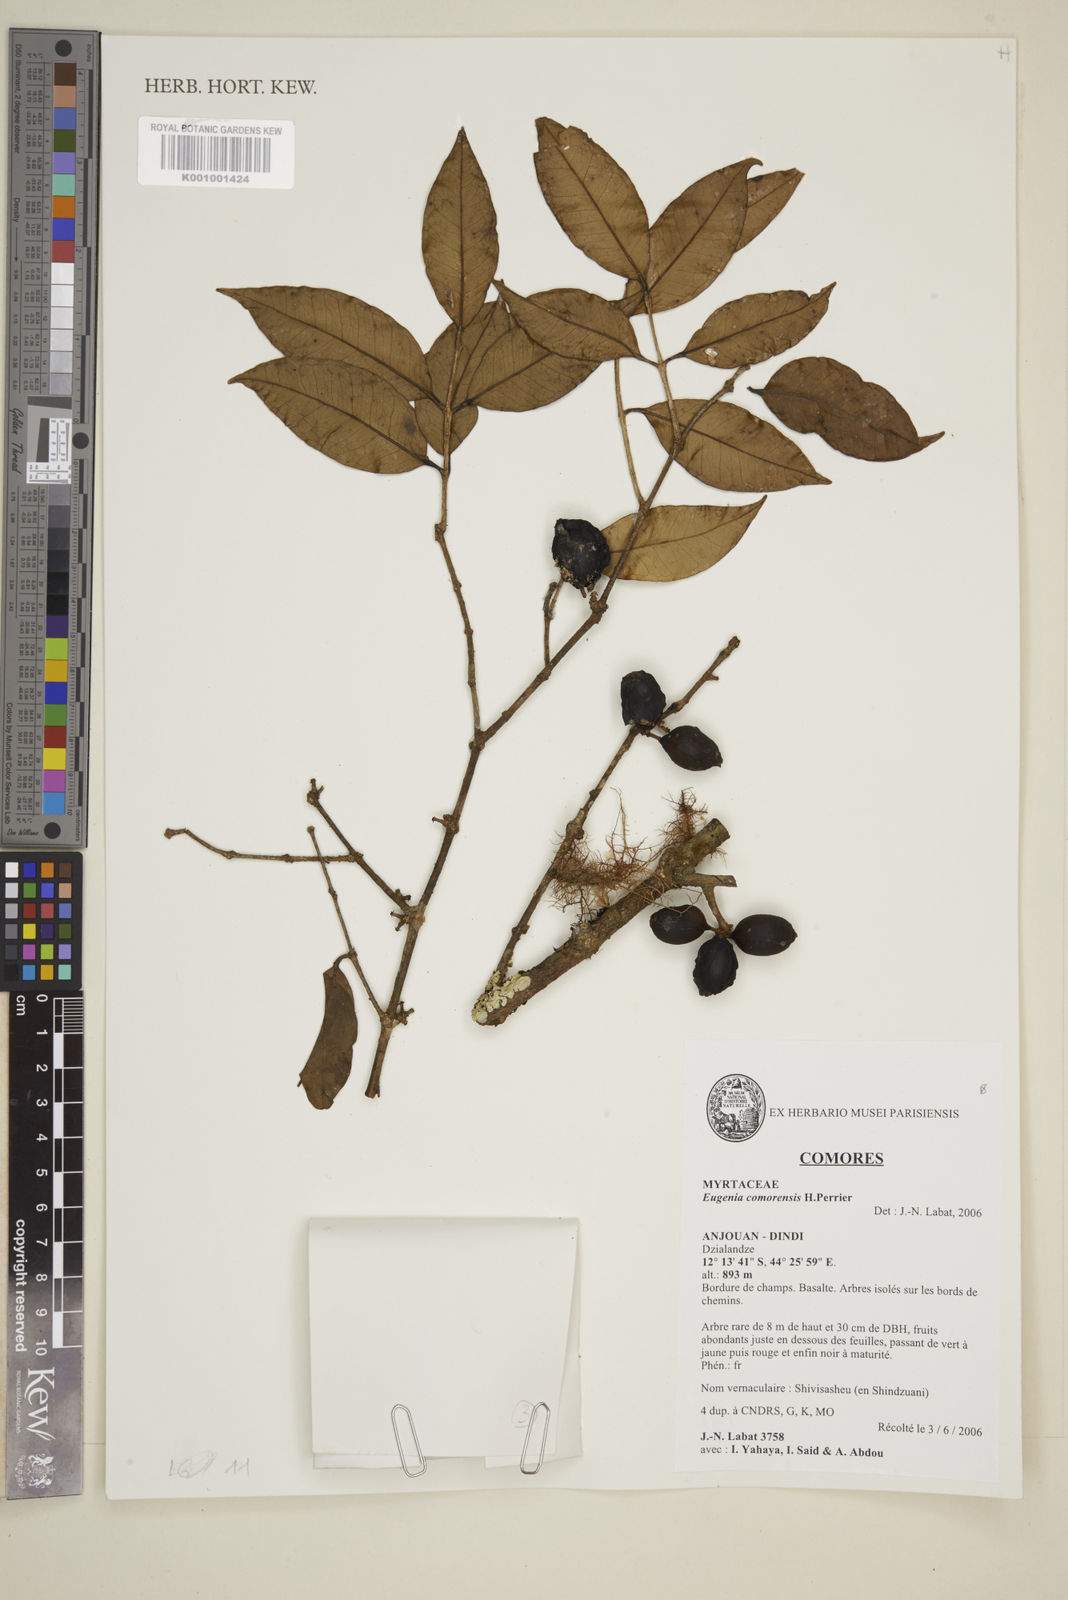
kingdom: Plantae
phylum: Tracheophyta
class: Magnoliopsida
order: Myrtales
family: Myrtaceae
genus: Eugenia
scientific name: Eugenia comorensis
